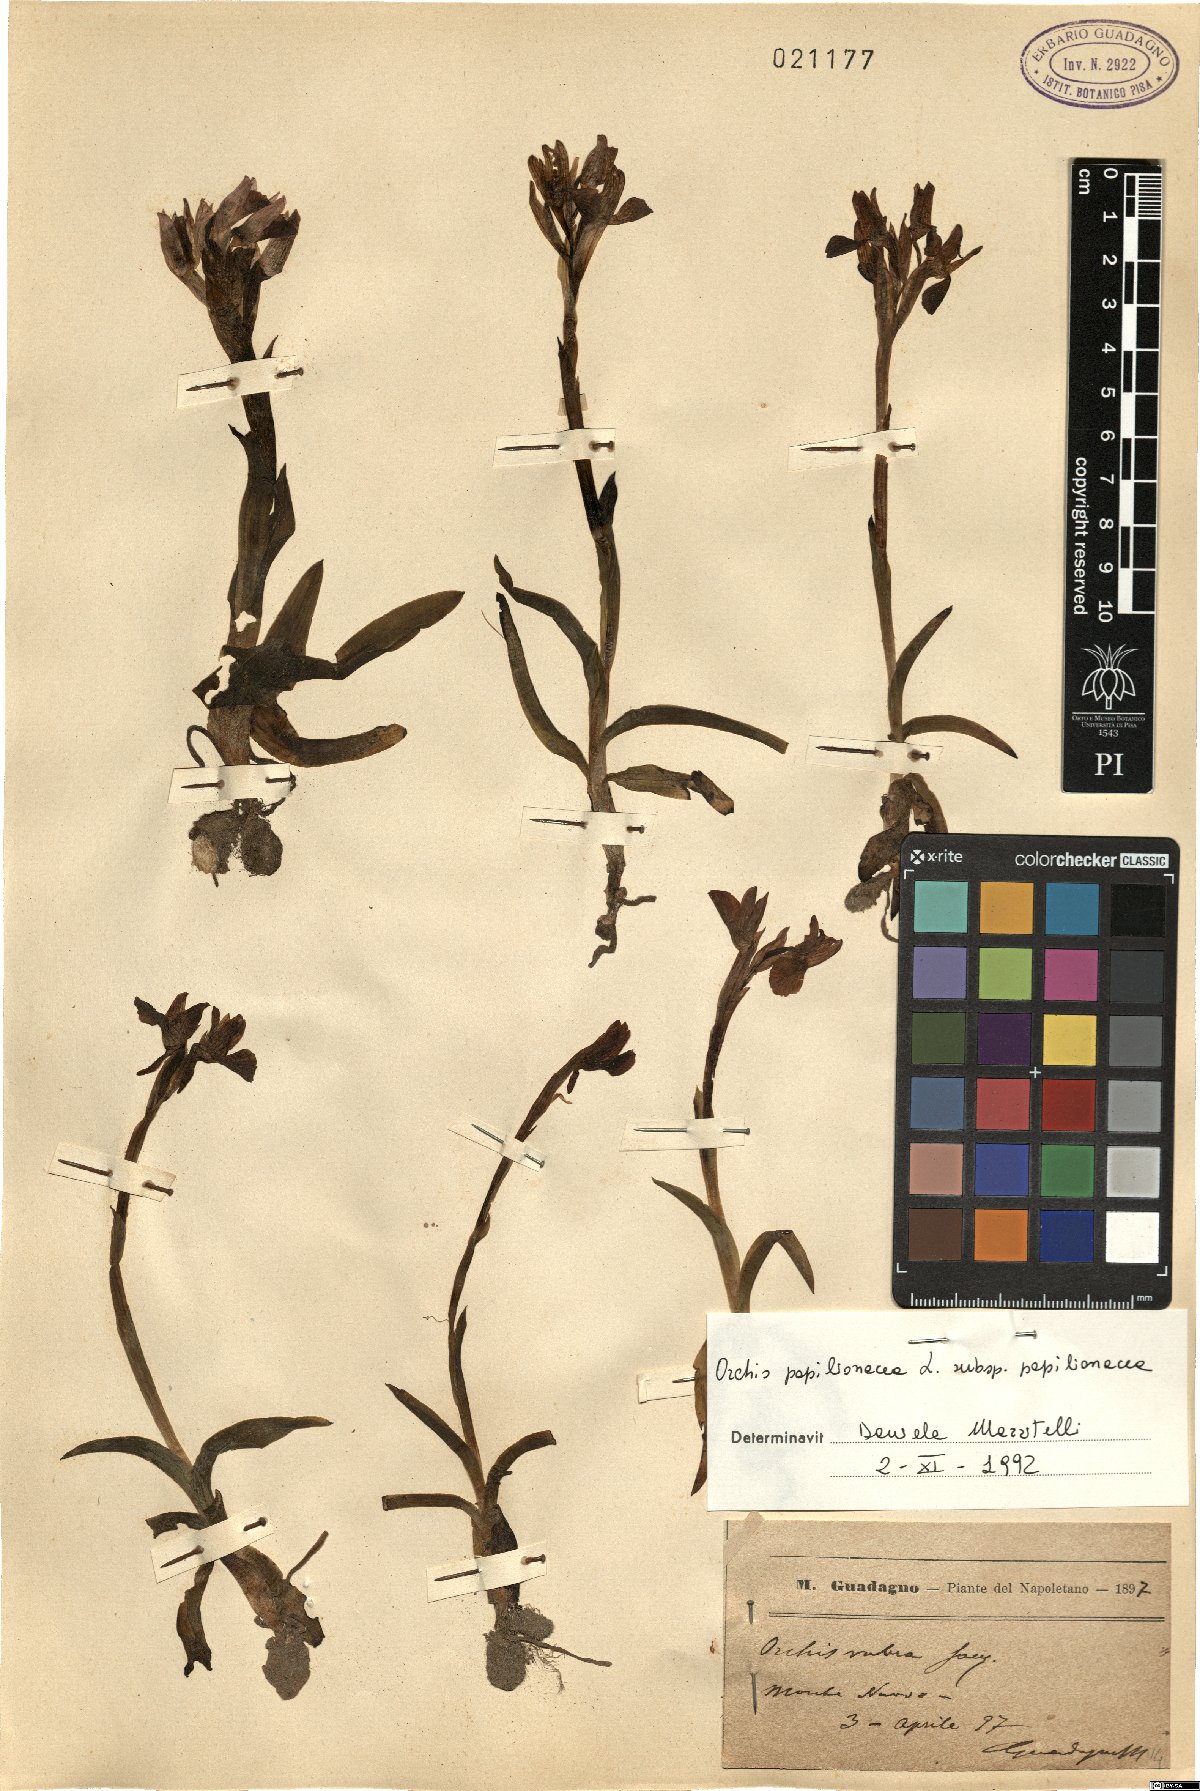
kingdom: Plantae
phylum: Tracheophyta
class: Liliopsida
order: Asparagales
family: Orchidaceae
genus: Anacamptis
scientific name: Anacamptis papilionacea
